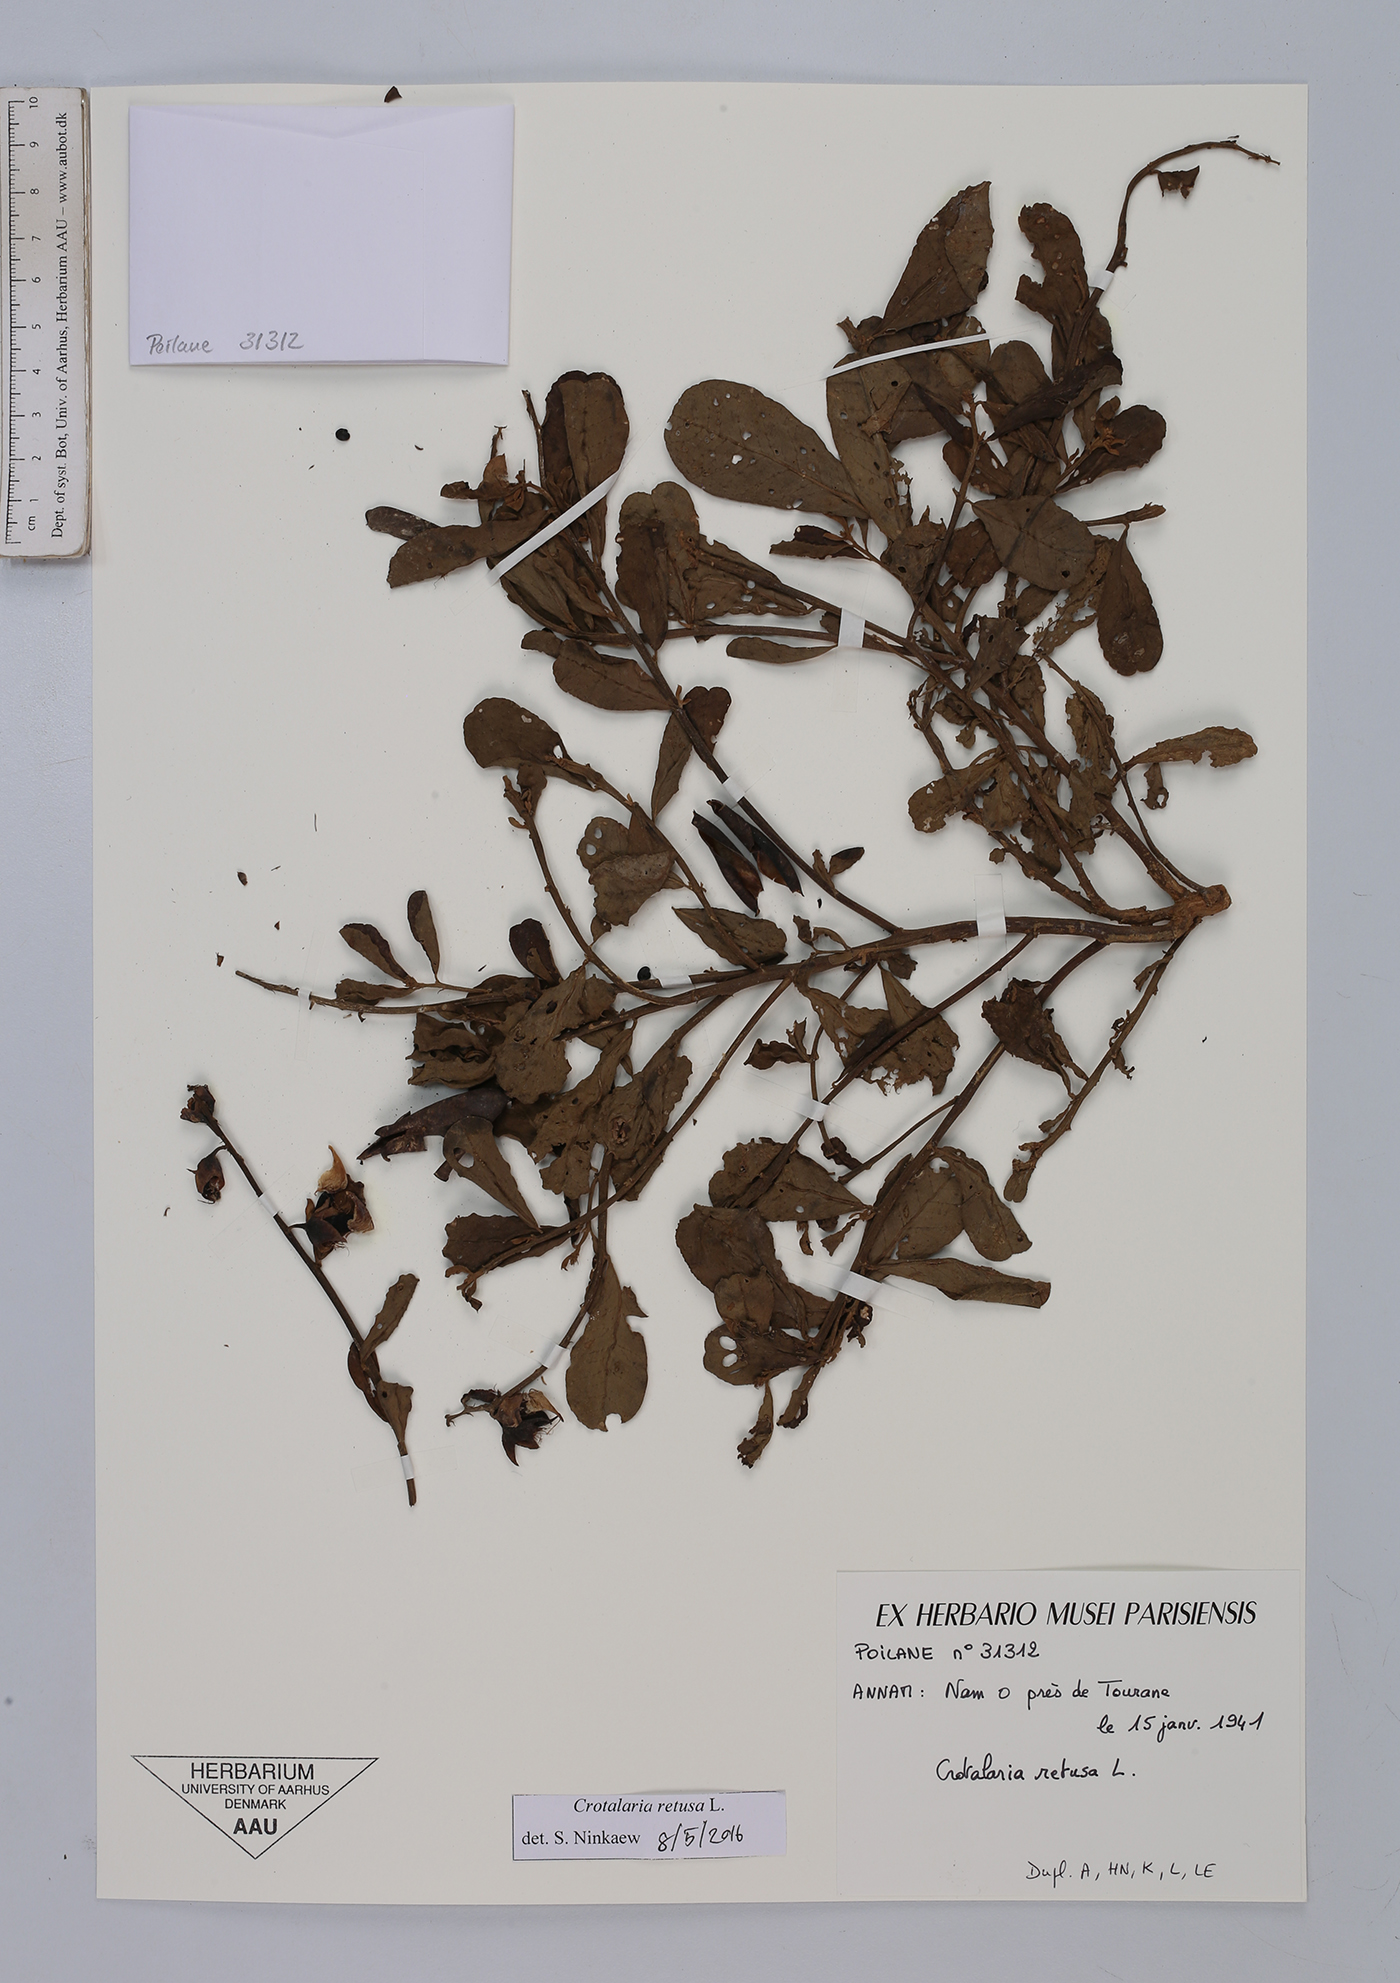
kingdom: Plantae
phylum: Tracheophyta
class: Magnoliopsida
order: Fabales
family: Fabaceae
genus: Crotalaria
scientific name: Crotalaria retusa
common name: Rattleweed
